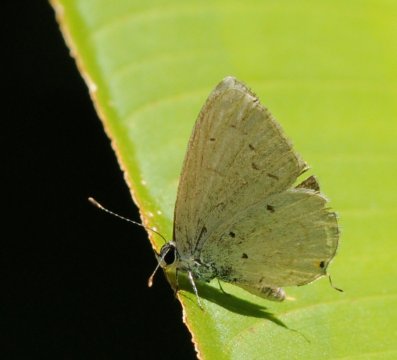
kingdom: Animalia
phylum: Arthropoda
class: Insecta
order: Lepidoptera
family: Lycaenidae
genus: Eicochrysops
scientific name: Eicochrysops hippocrates
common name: White-tipped Blue
